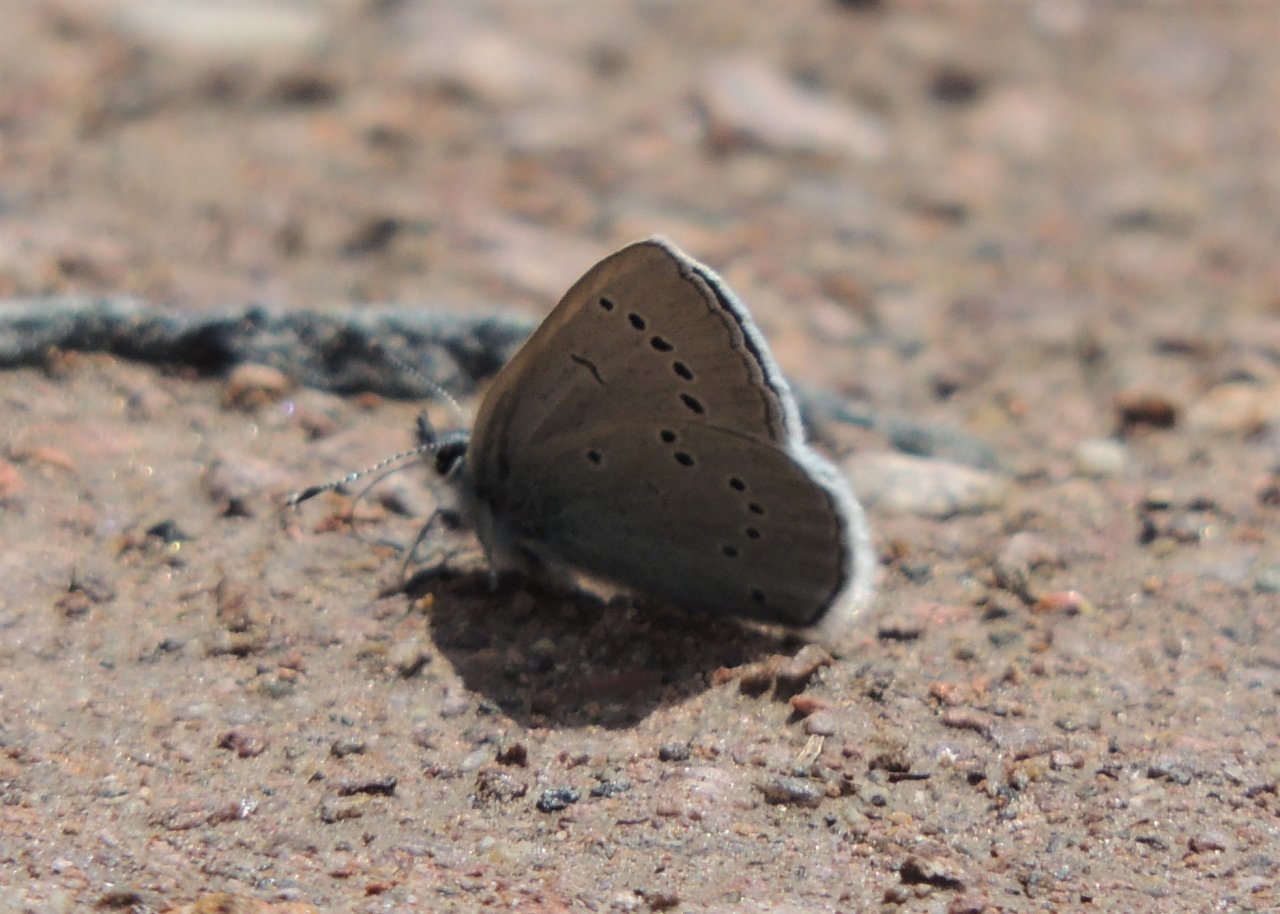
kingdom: Animalia
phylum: Arthropoda
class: Insecta
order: Lepidoptera
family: Lycaenidae
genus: Glaucopsyche
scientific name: Glaucopsyche lygdamus
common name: Silvery Blue
